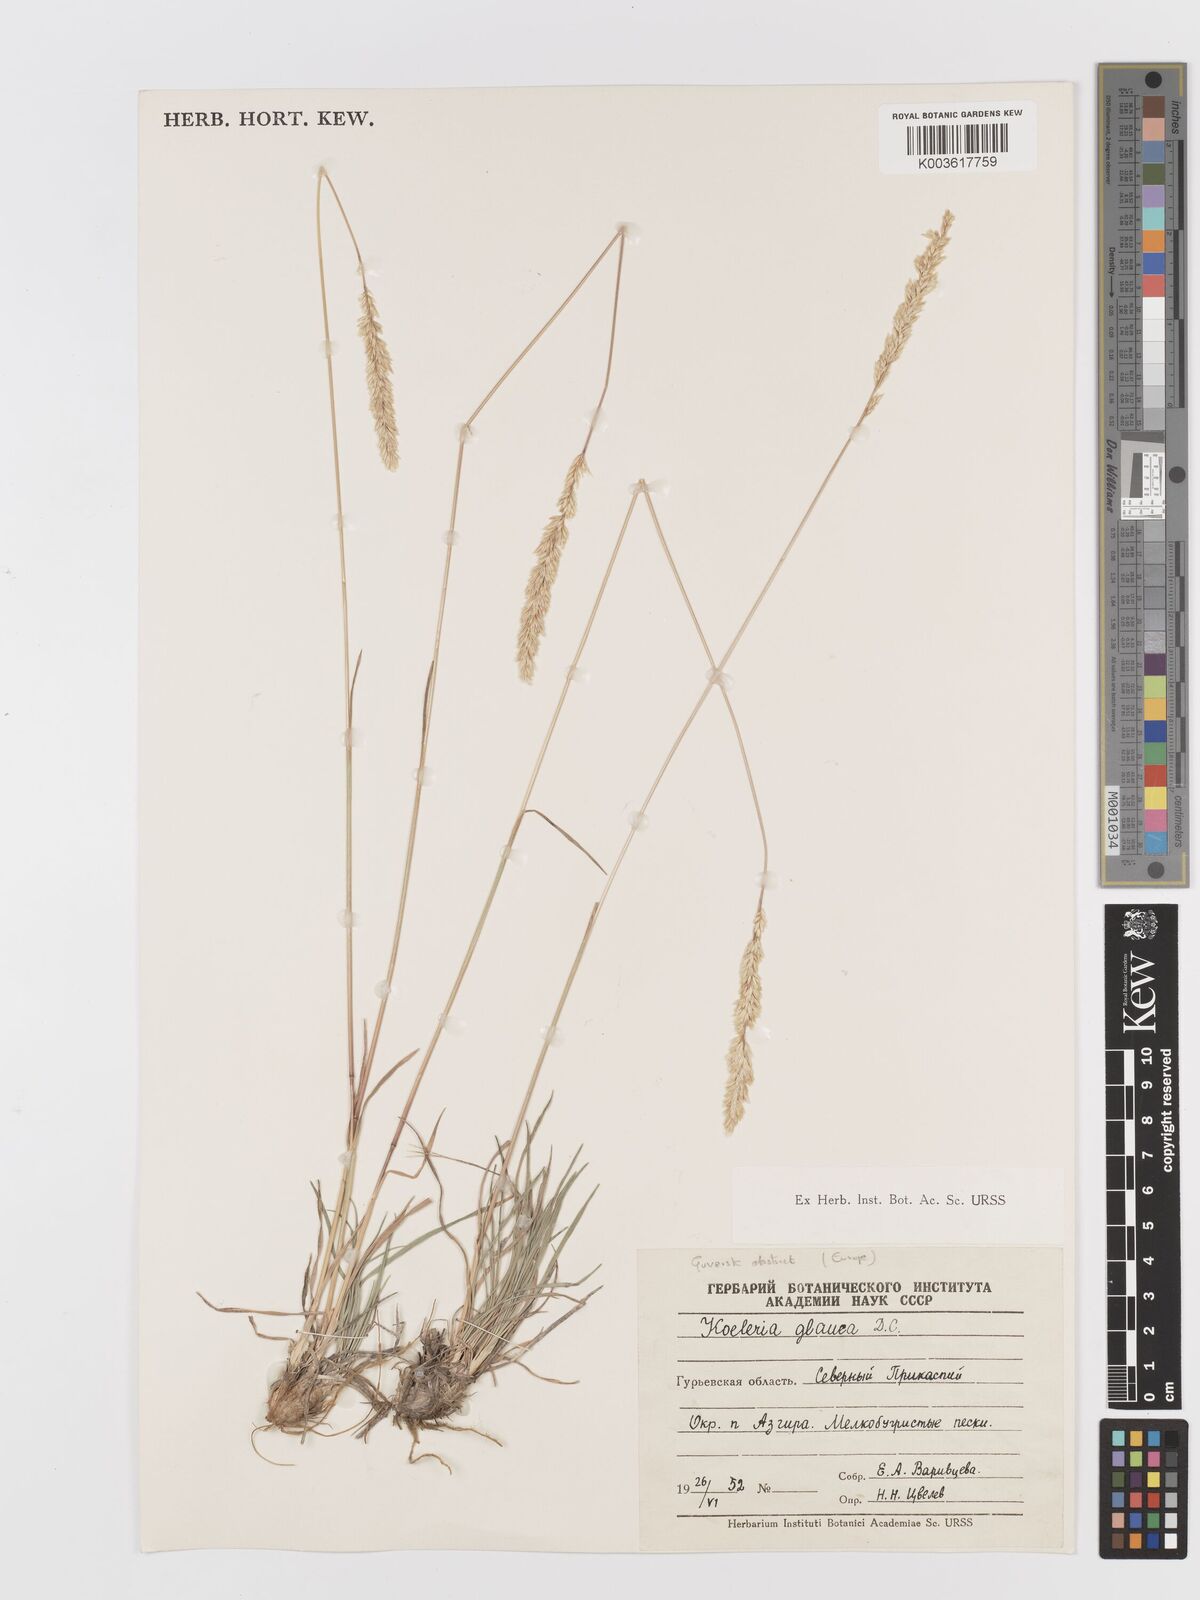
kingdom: Plantae
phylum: Tracheophyta
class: Liliopsida
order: Poales
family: Poaceae
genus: Koeleria
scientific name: Koeleria glauca
